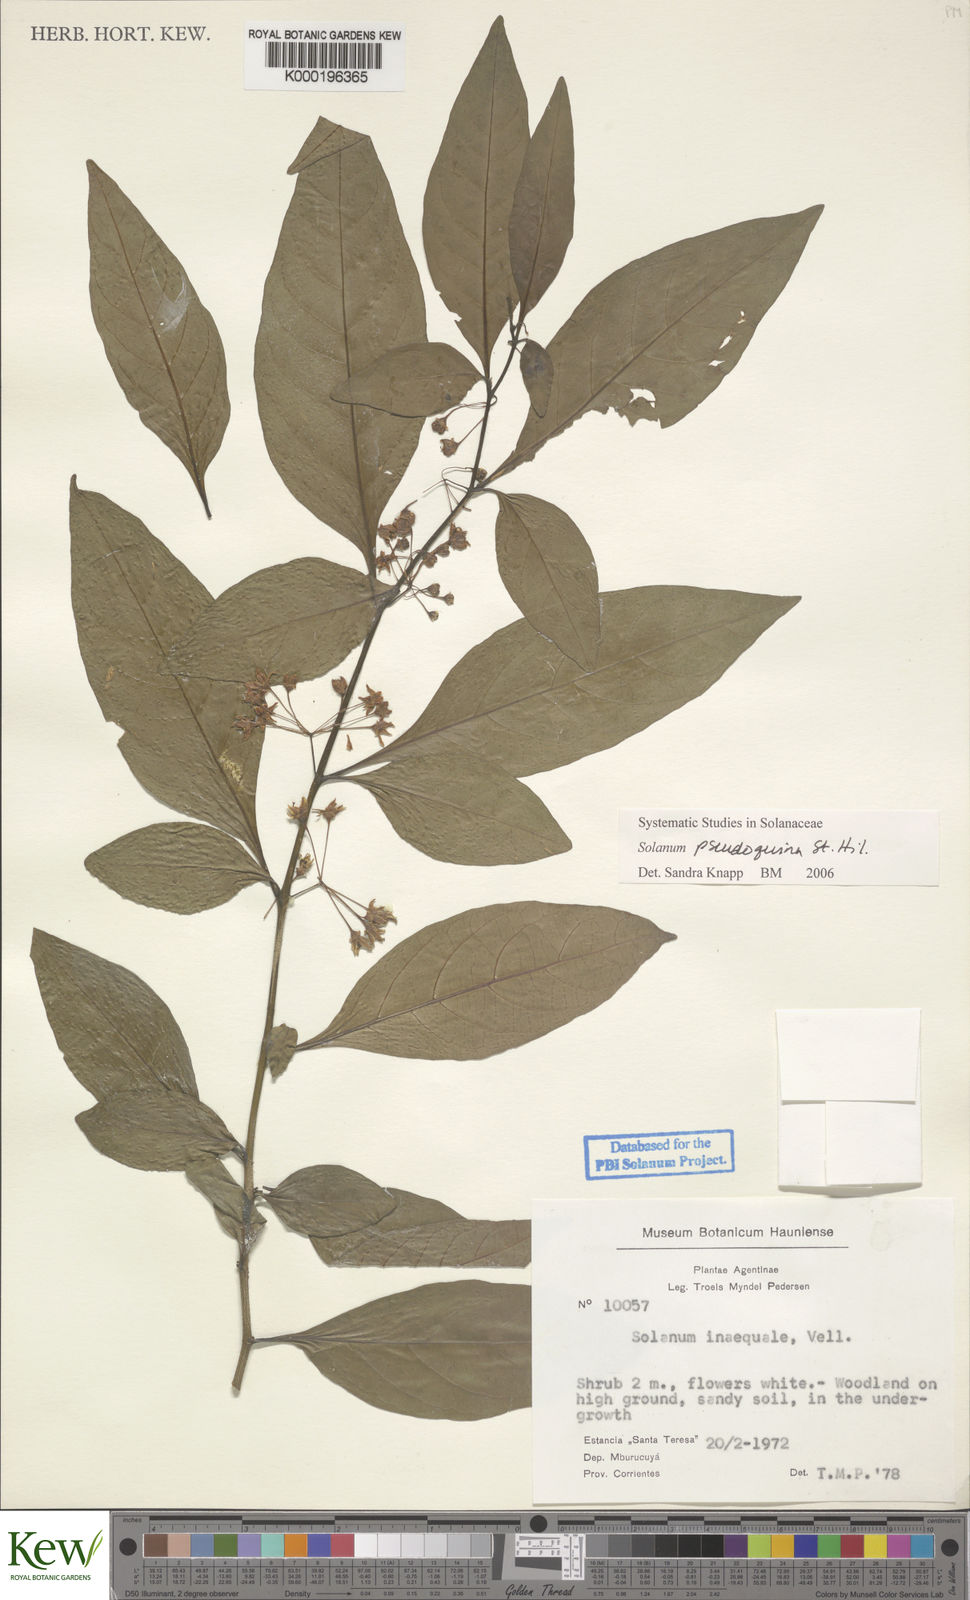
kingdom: Plantae
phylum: Tracheophyta
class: Magnoliopsida
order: Solanales
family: Solanaceae
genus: Solanum
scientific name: Solanum pseudoquina
